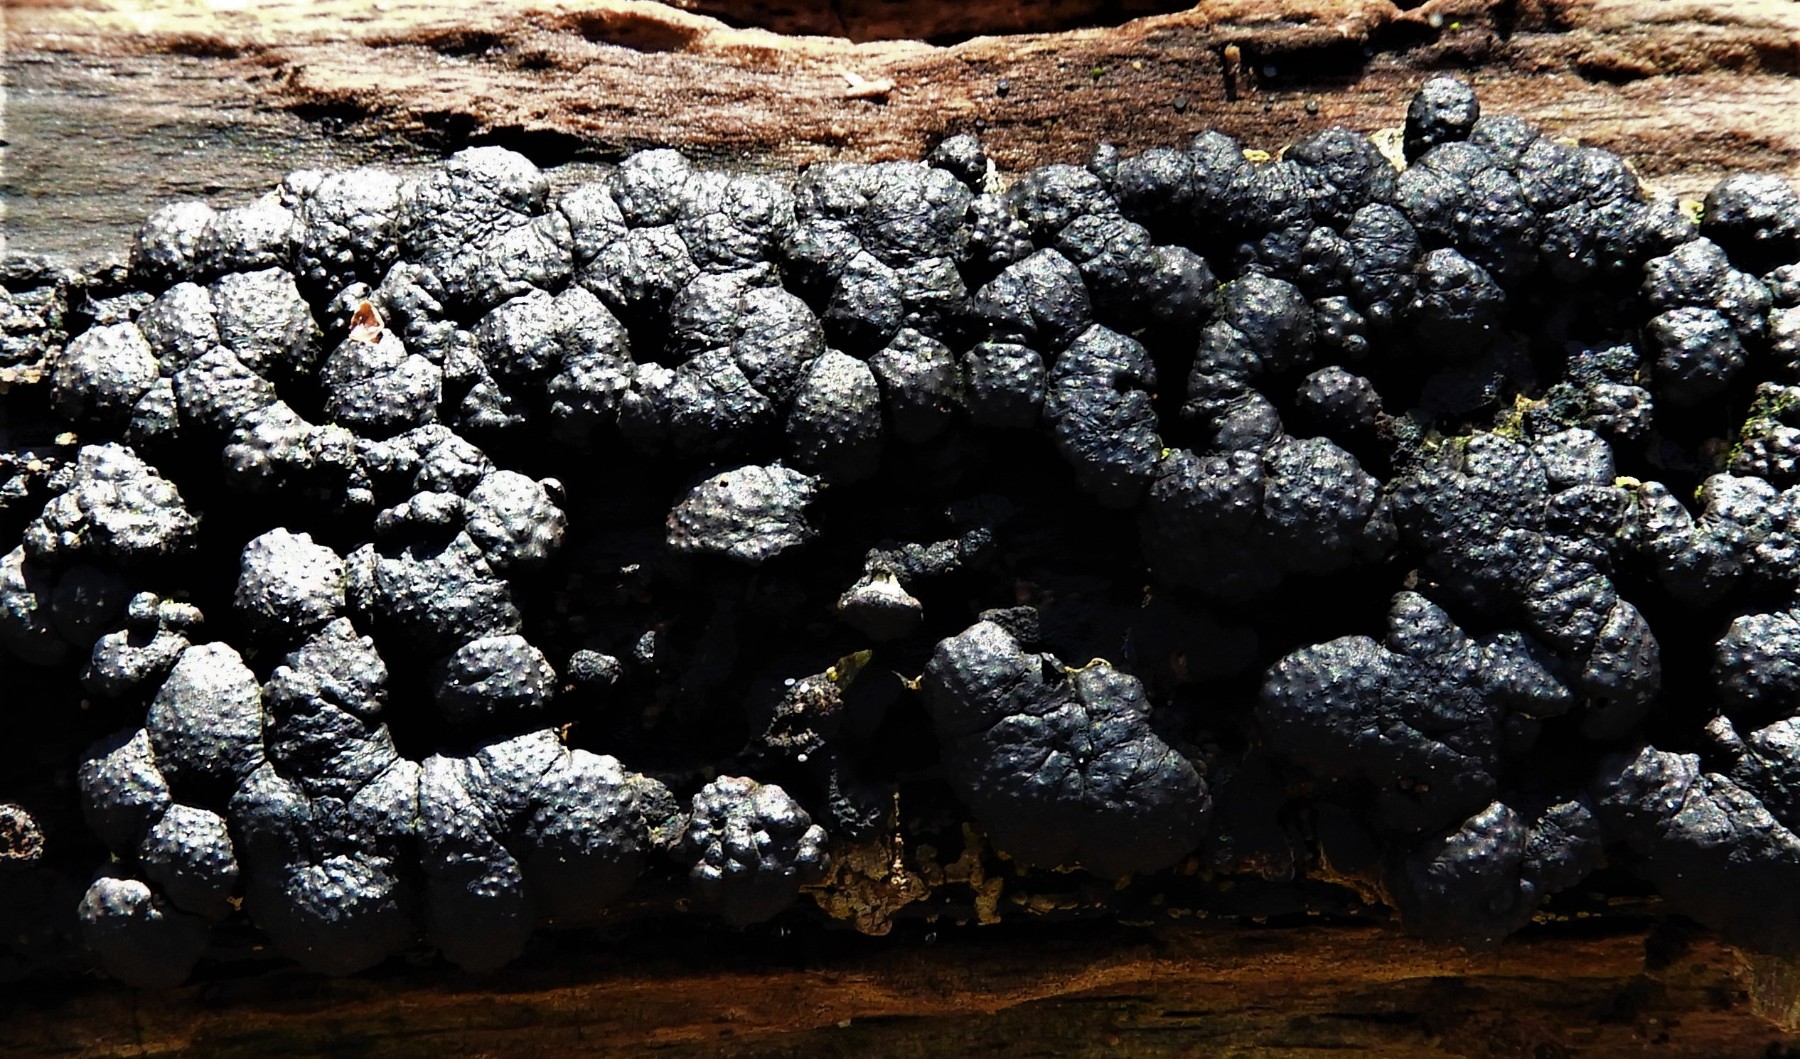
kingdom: Fungi
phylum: Ascomycota
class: Sordariomycetes
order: Xylariales
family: Hypoxylaceae
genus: Jackrogersella
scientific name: Jackrogersella cohaerens
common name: sammenflydende kulbær
